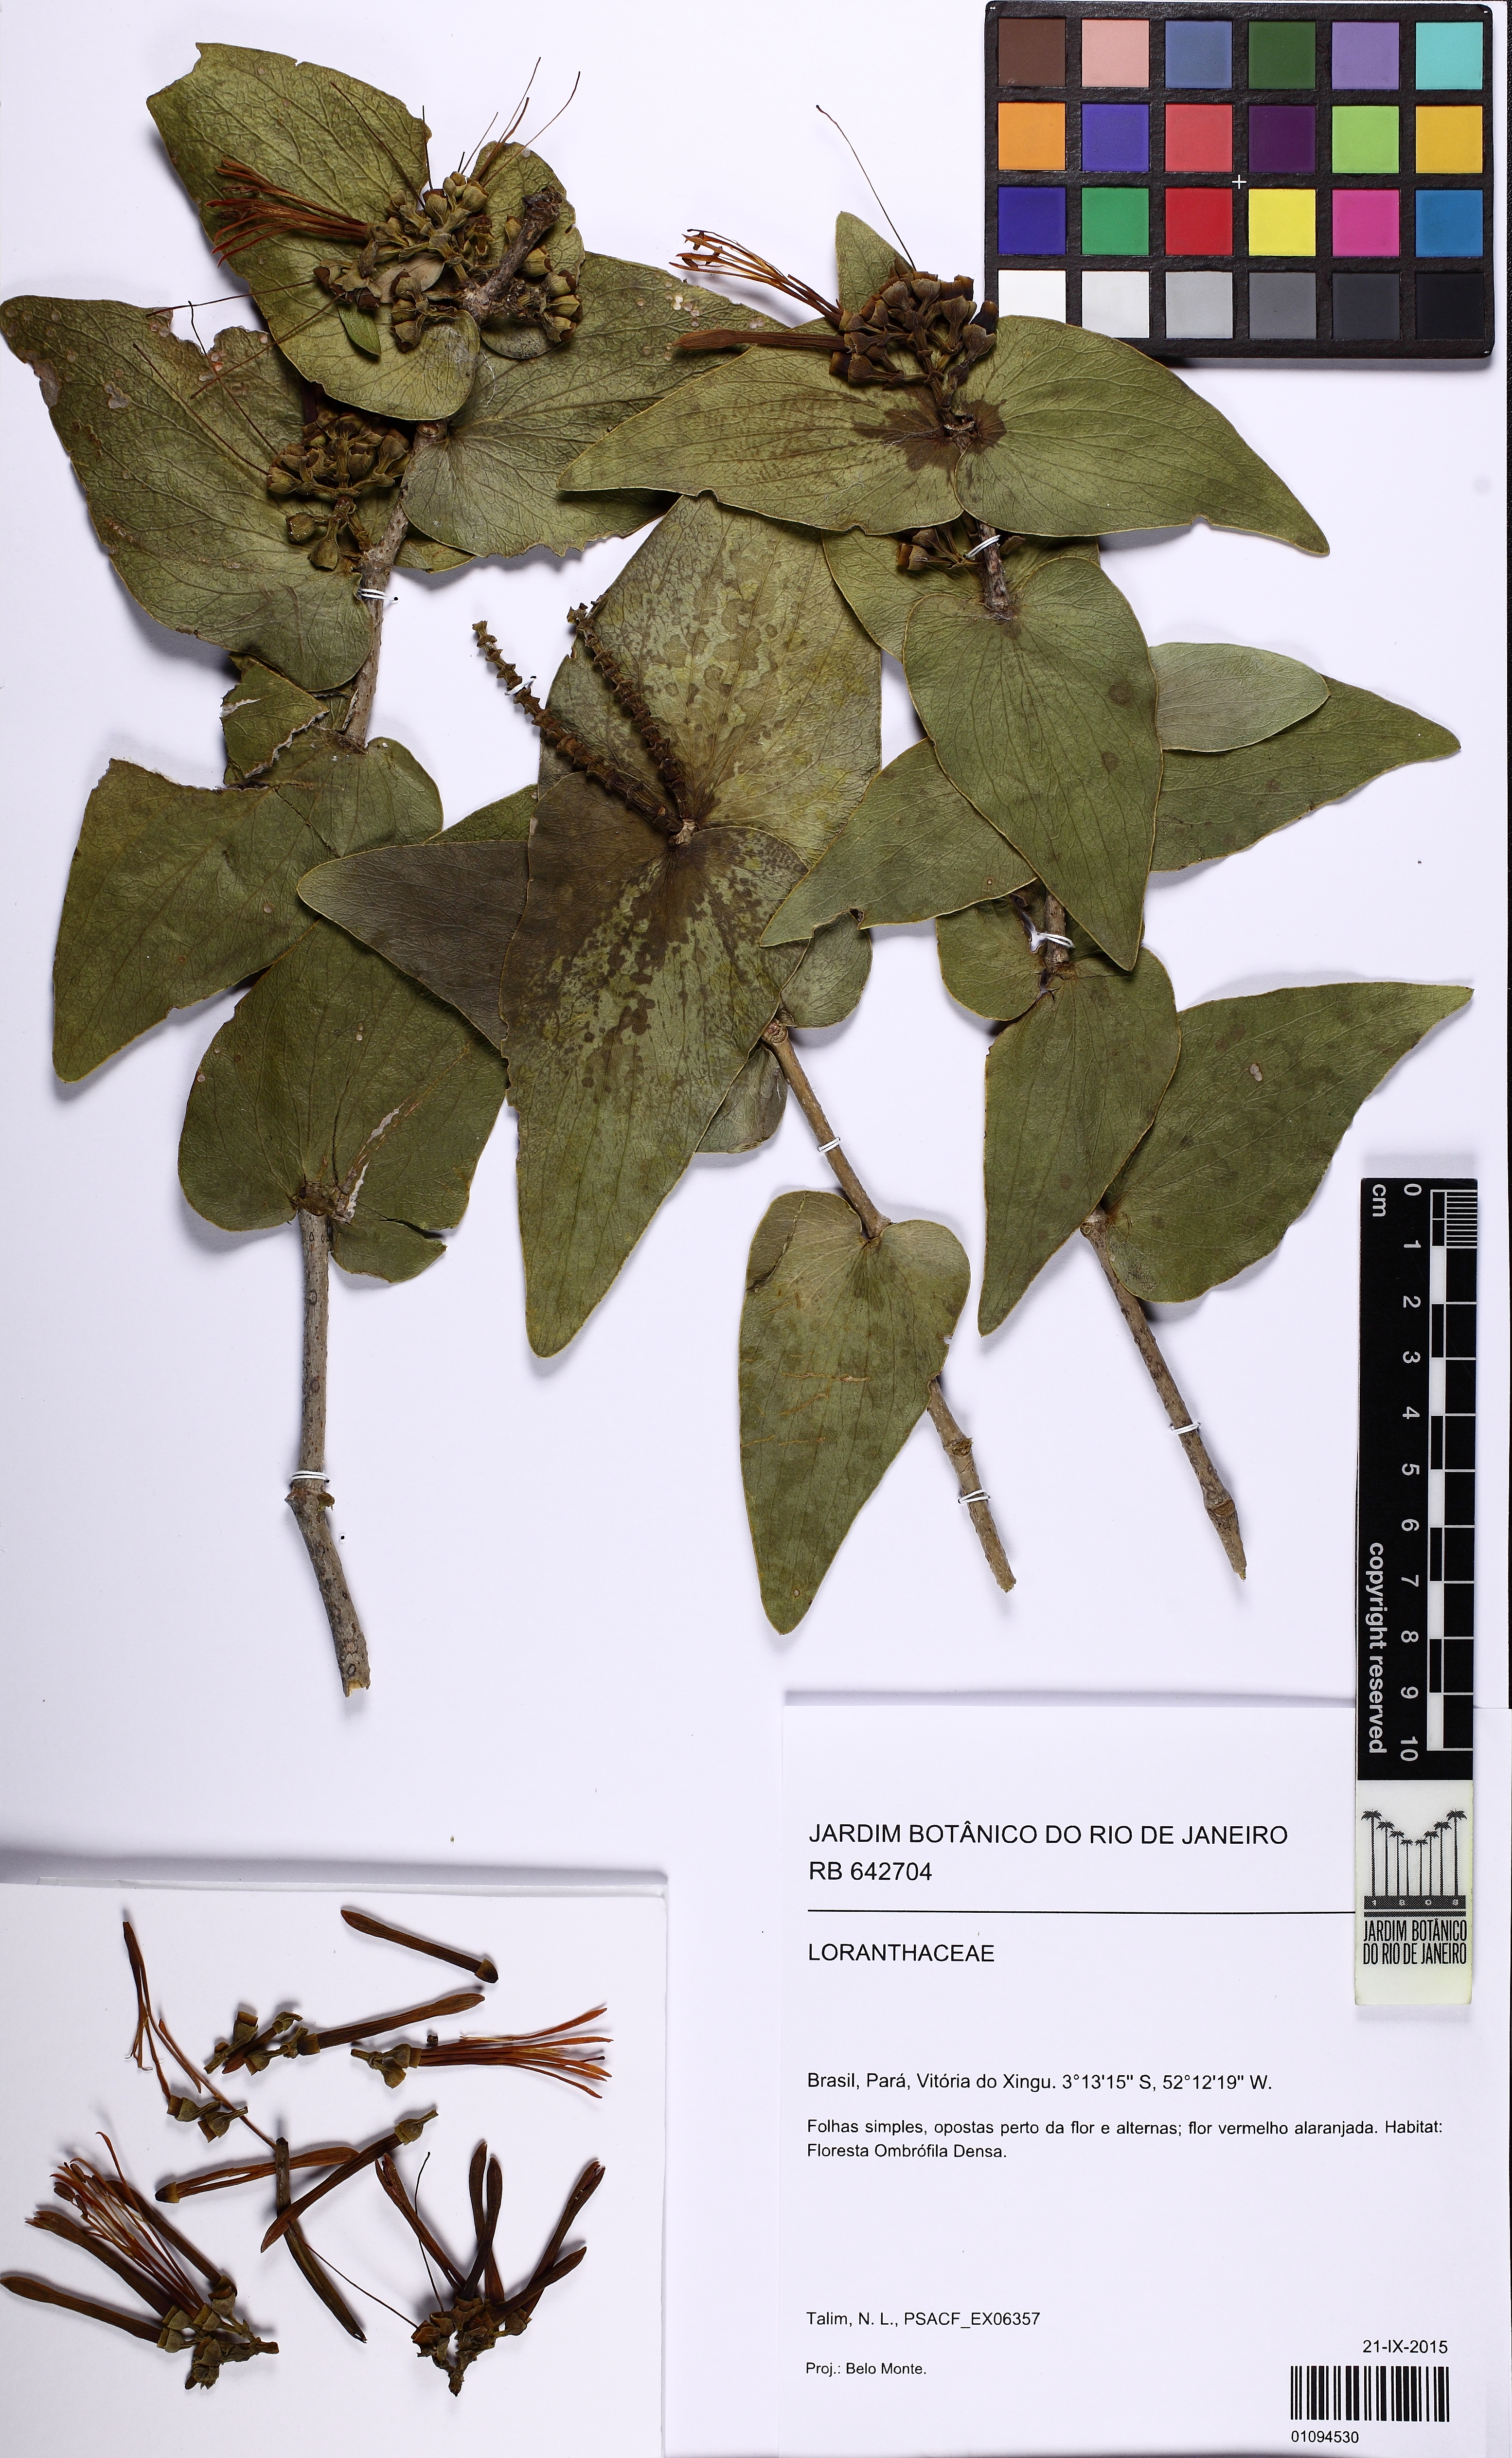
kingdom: Plantae
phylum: Tracheophyta
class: Magnoliopsida
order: Santalales
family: Loranthaceae
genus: Psittacanthus
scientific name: Psittacanthus cordatus
